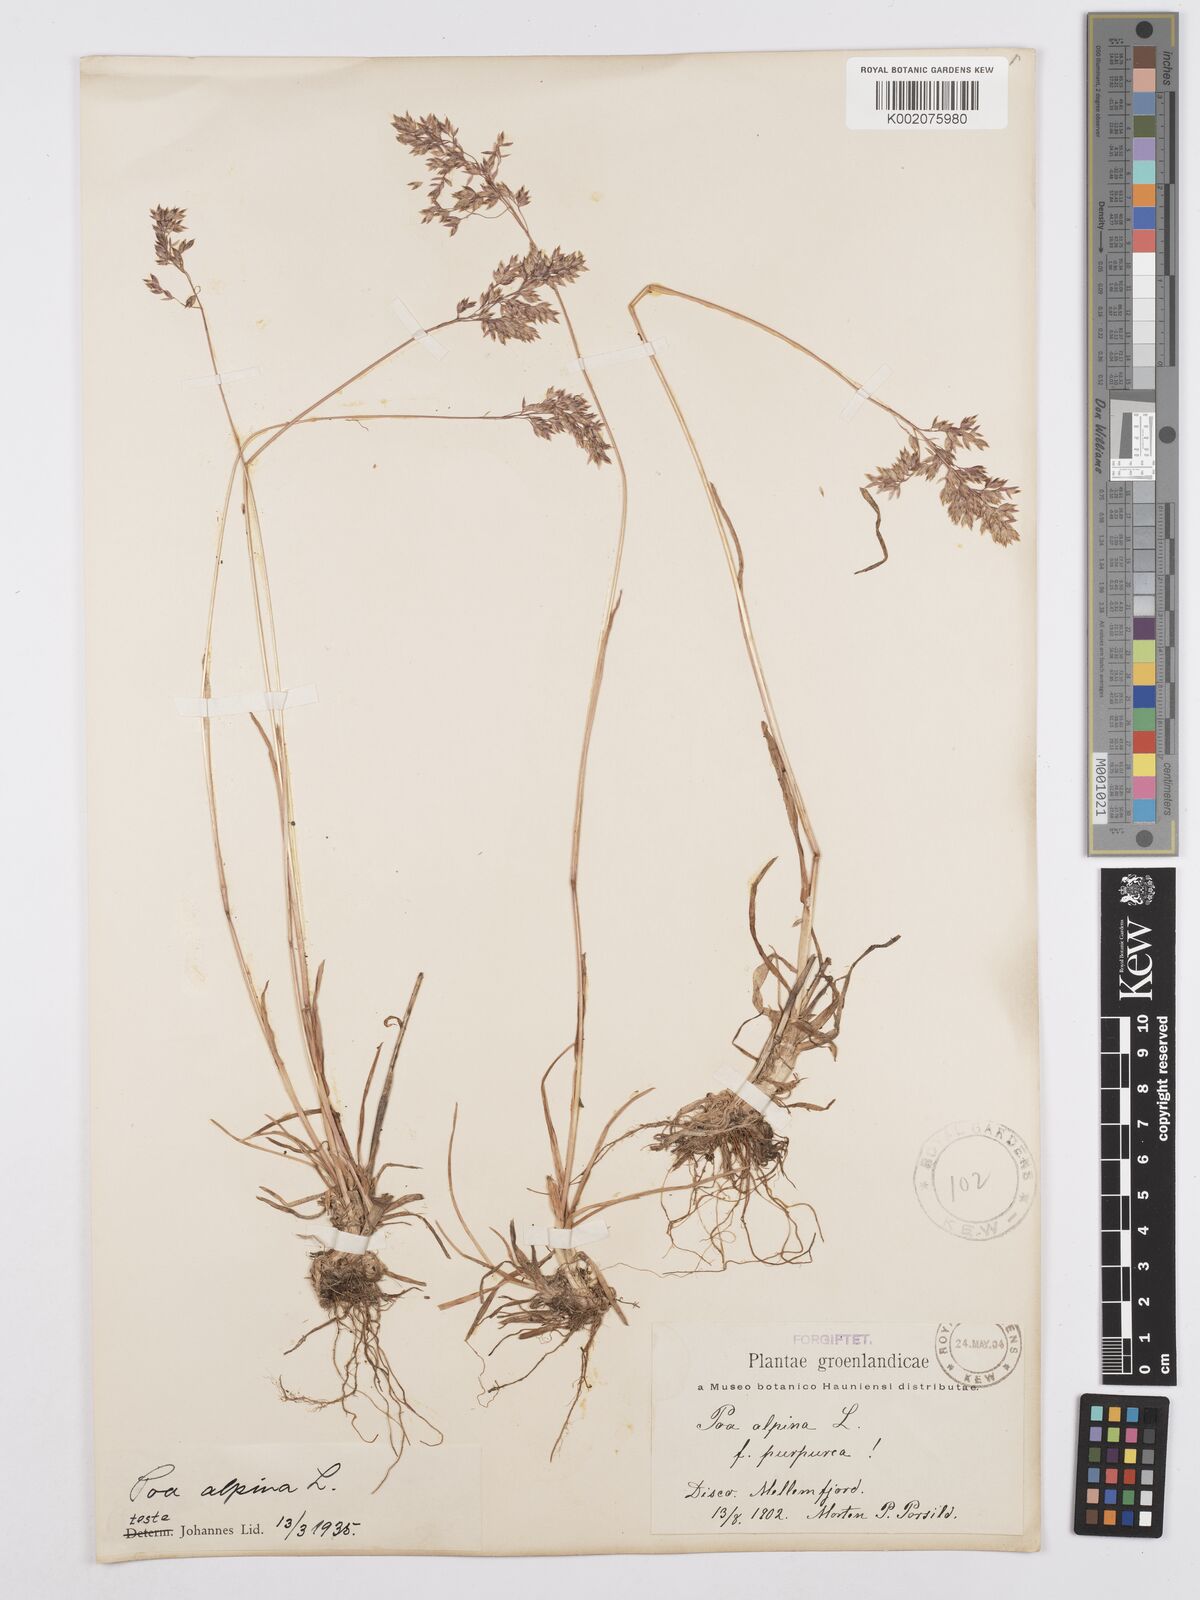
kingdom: Plantae
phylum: Tracheophyta
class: Liliopsida
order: Poales
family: Poaceae
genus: Poa
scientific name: Poa alpina
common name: Alpine bluegrass
